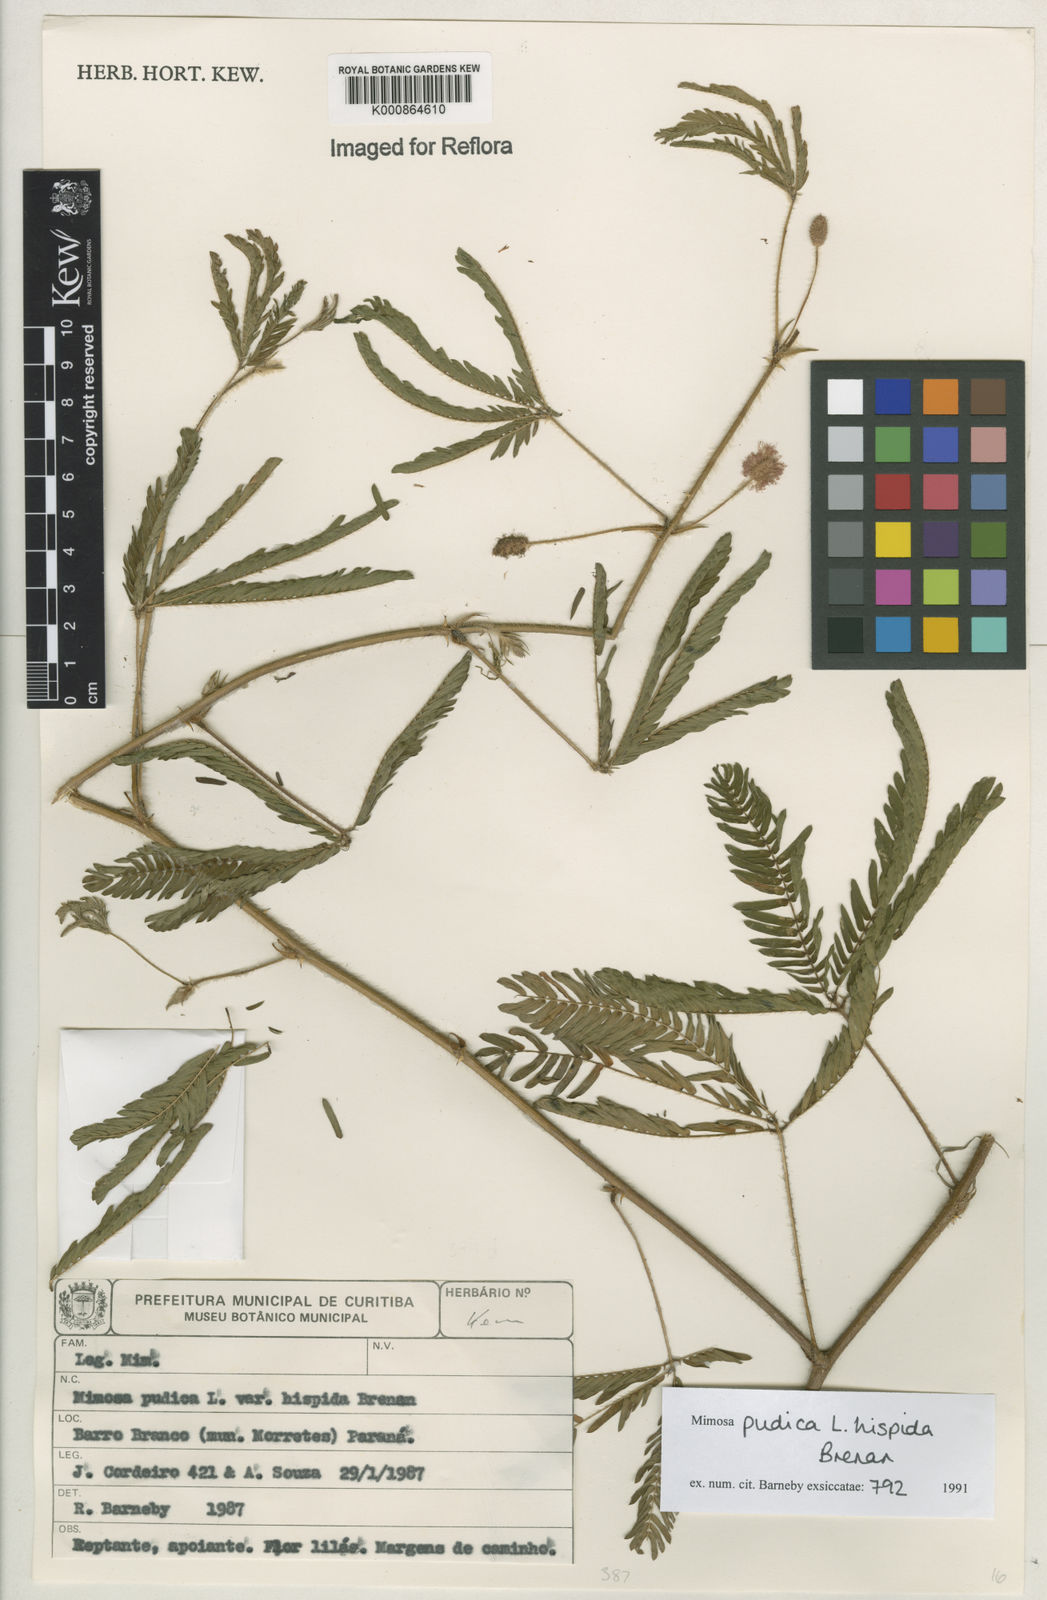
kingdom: Plantae
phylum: Tracheophyta
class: Magnoliopsida
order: Fabales
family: Fabaceae
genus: Mimosa
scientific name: Mimosa pudica
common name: Sensitive plant
